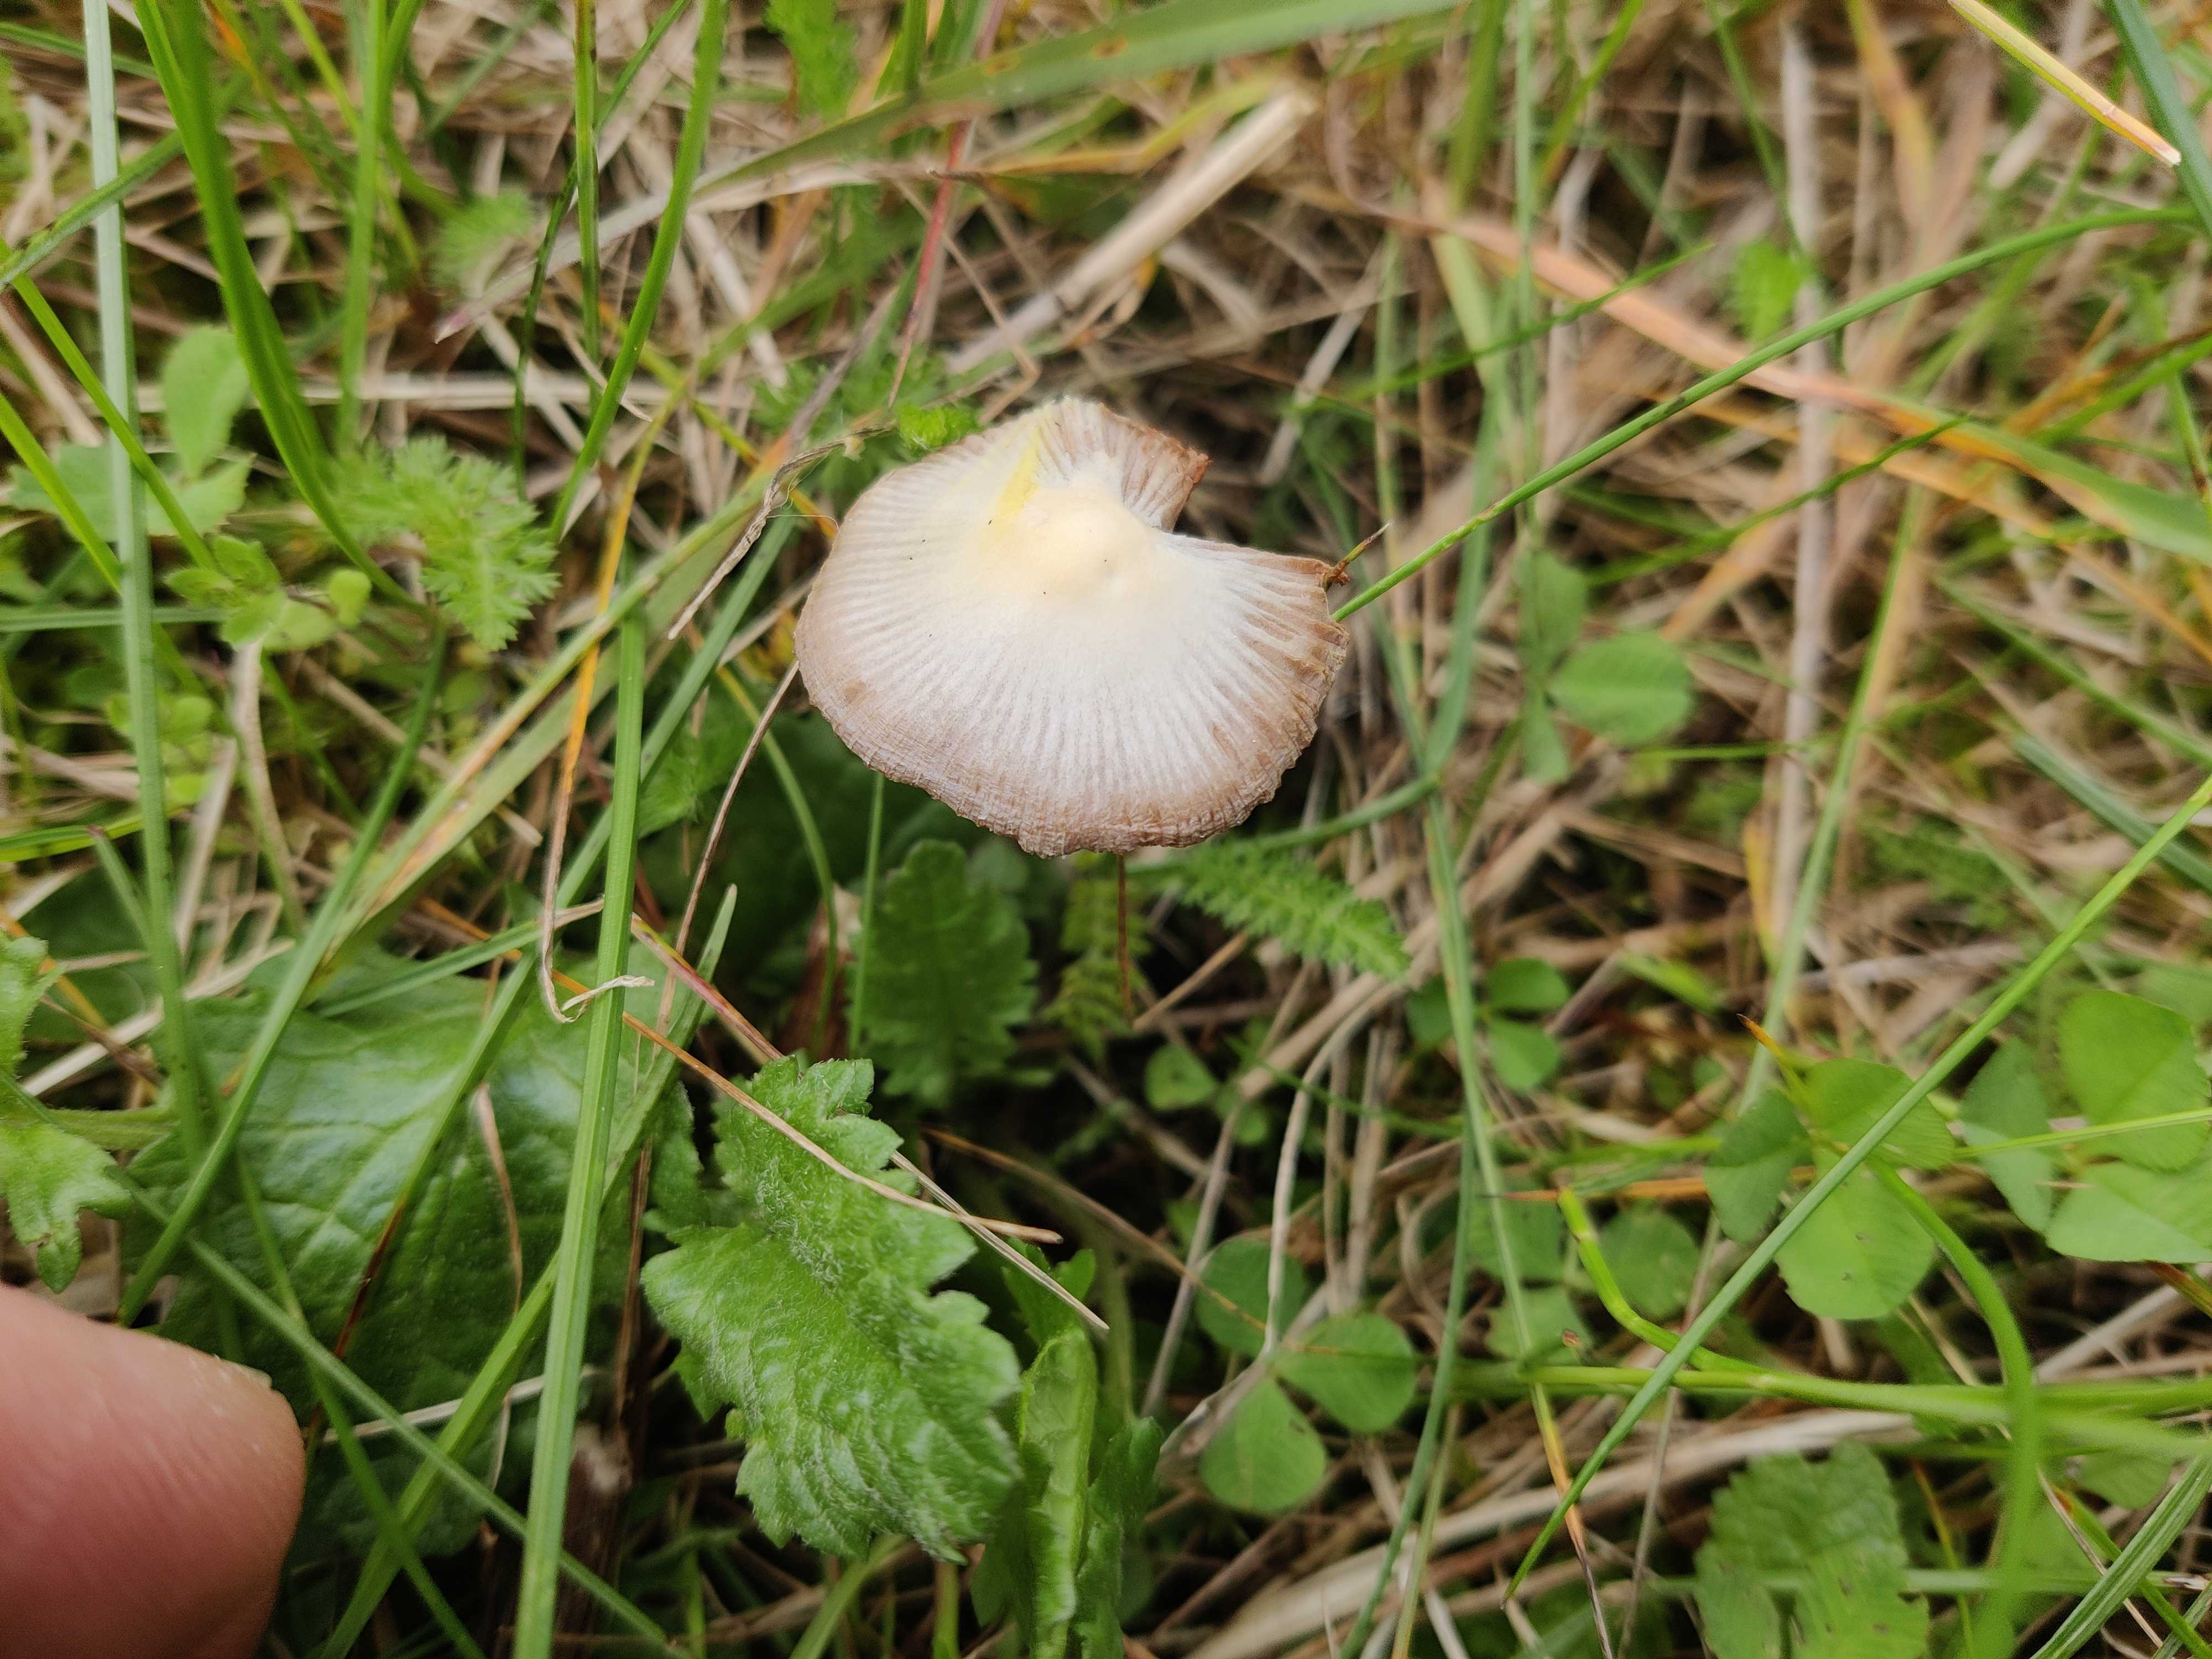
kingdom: Fungi
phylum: Basidiomycota
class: Agaricomycetes
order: Agaricales
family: Bolbitiaceae
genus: Bolbitius
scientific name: Bolbitius titubans
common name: almindelig gulhat
